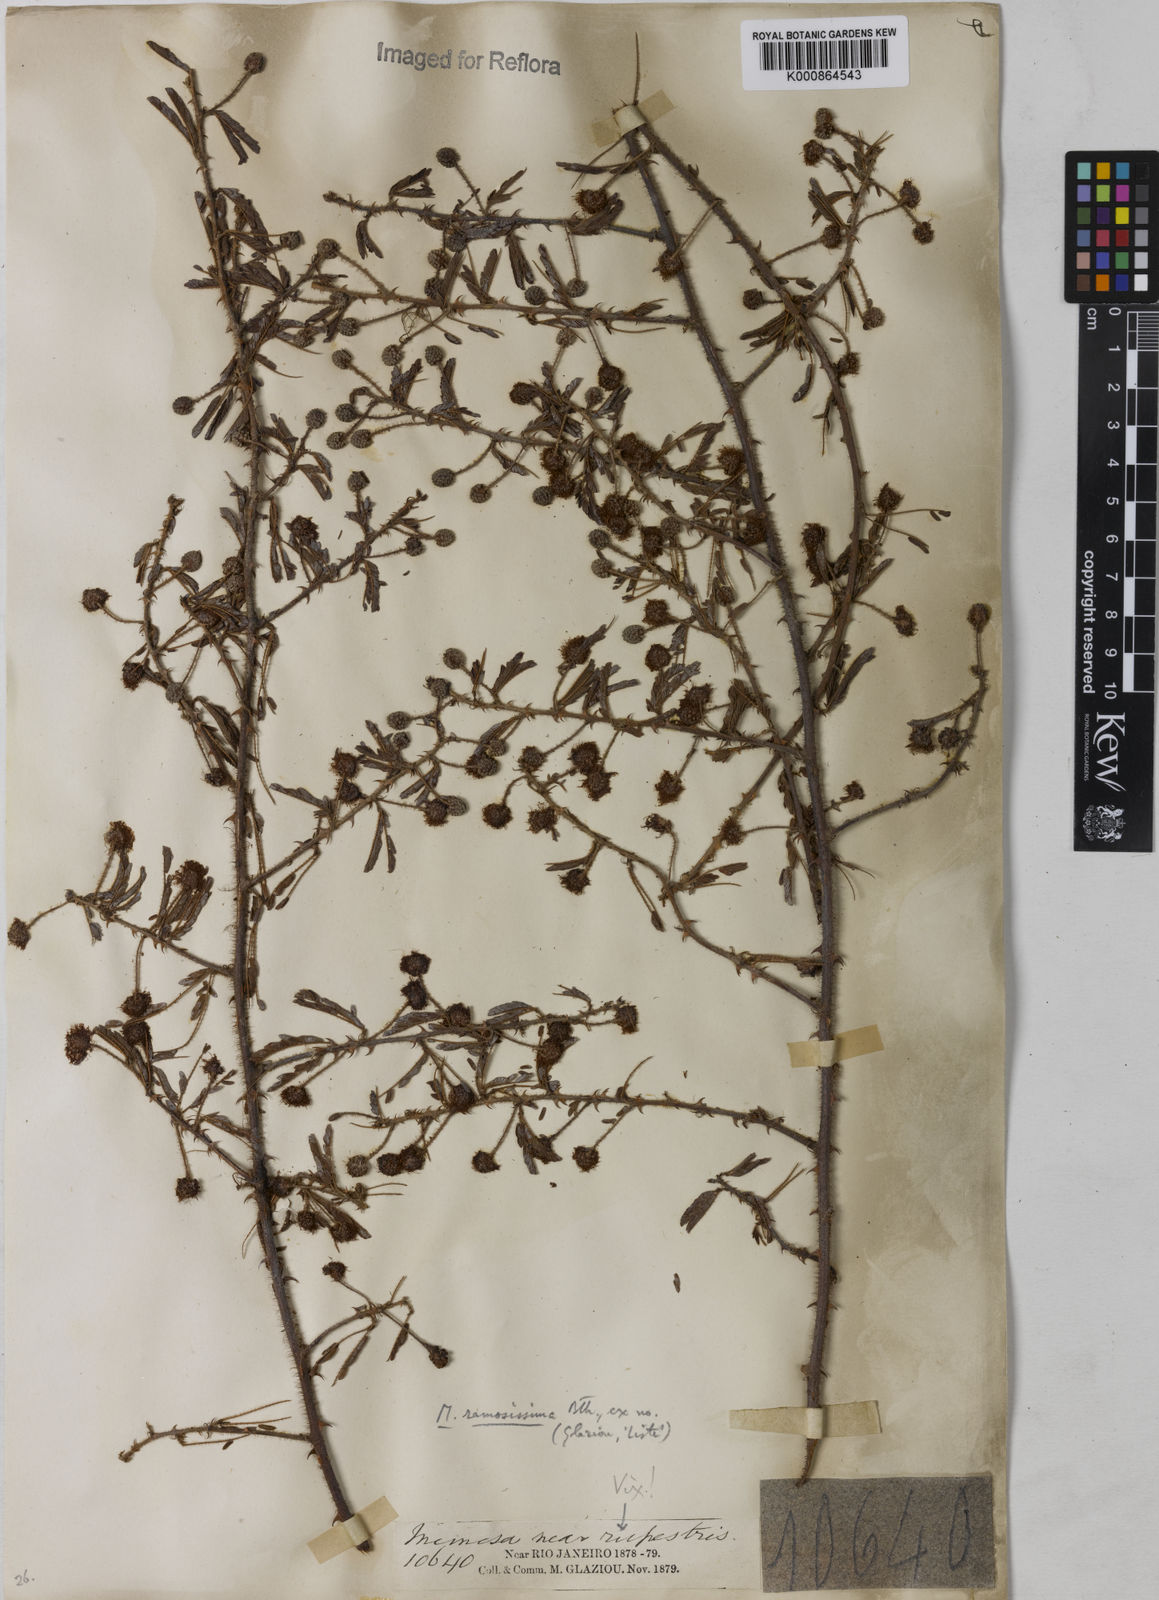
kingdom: Plantae
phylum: Tracheophyta
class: Magnoliopsida
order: Fabales
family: Fabaceae
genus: Mimosa
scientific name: Mimosa ramosissima
